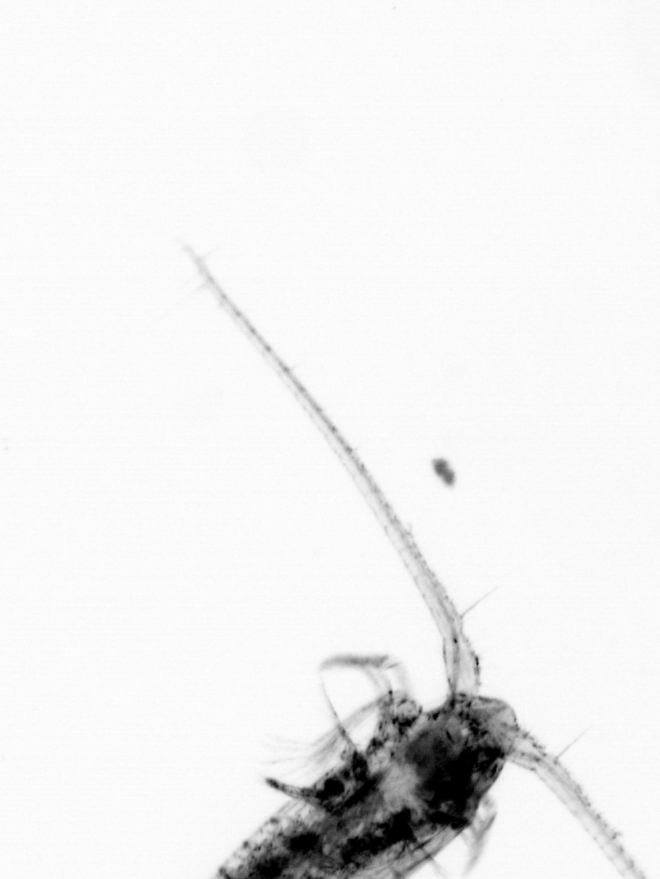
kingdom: Animalia
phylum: Arthropoda
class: Copepoda
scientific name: Copepoda
